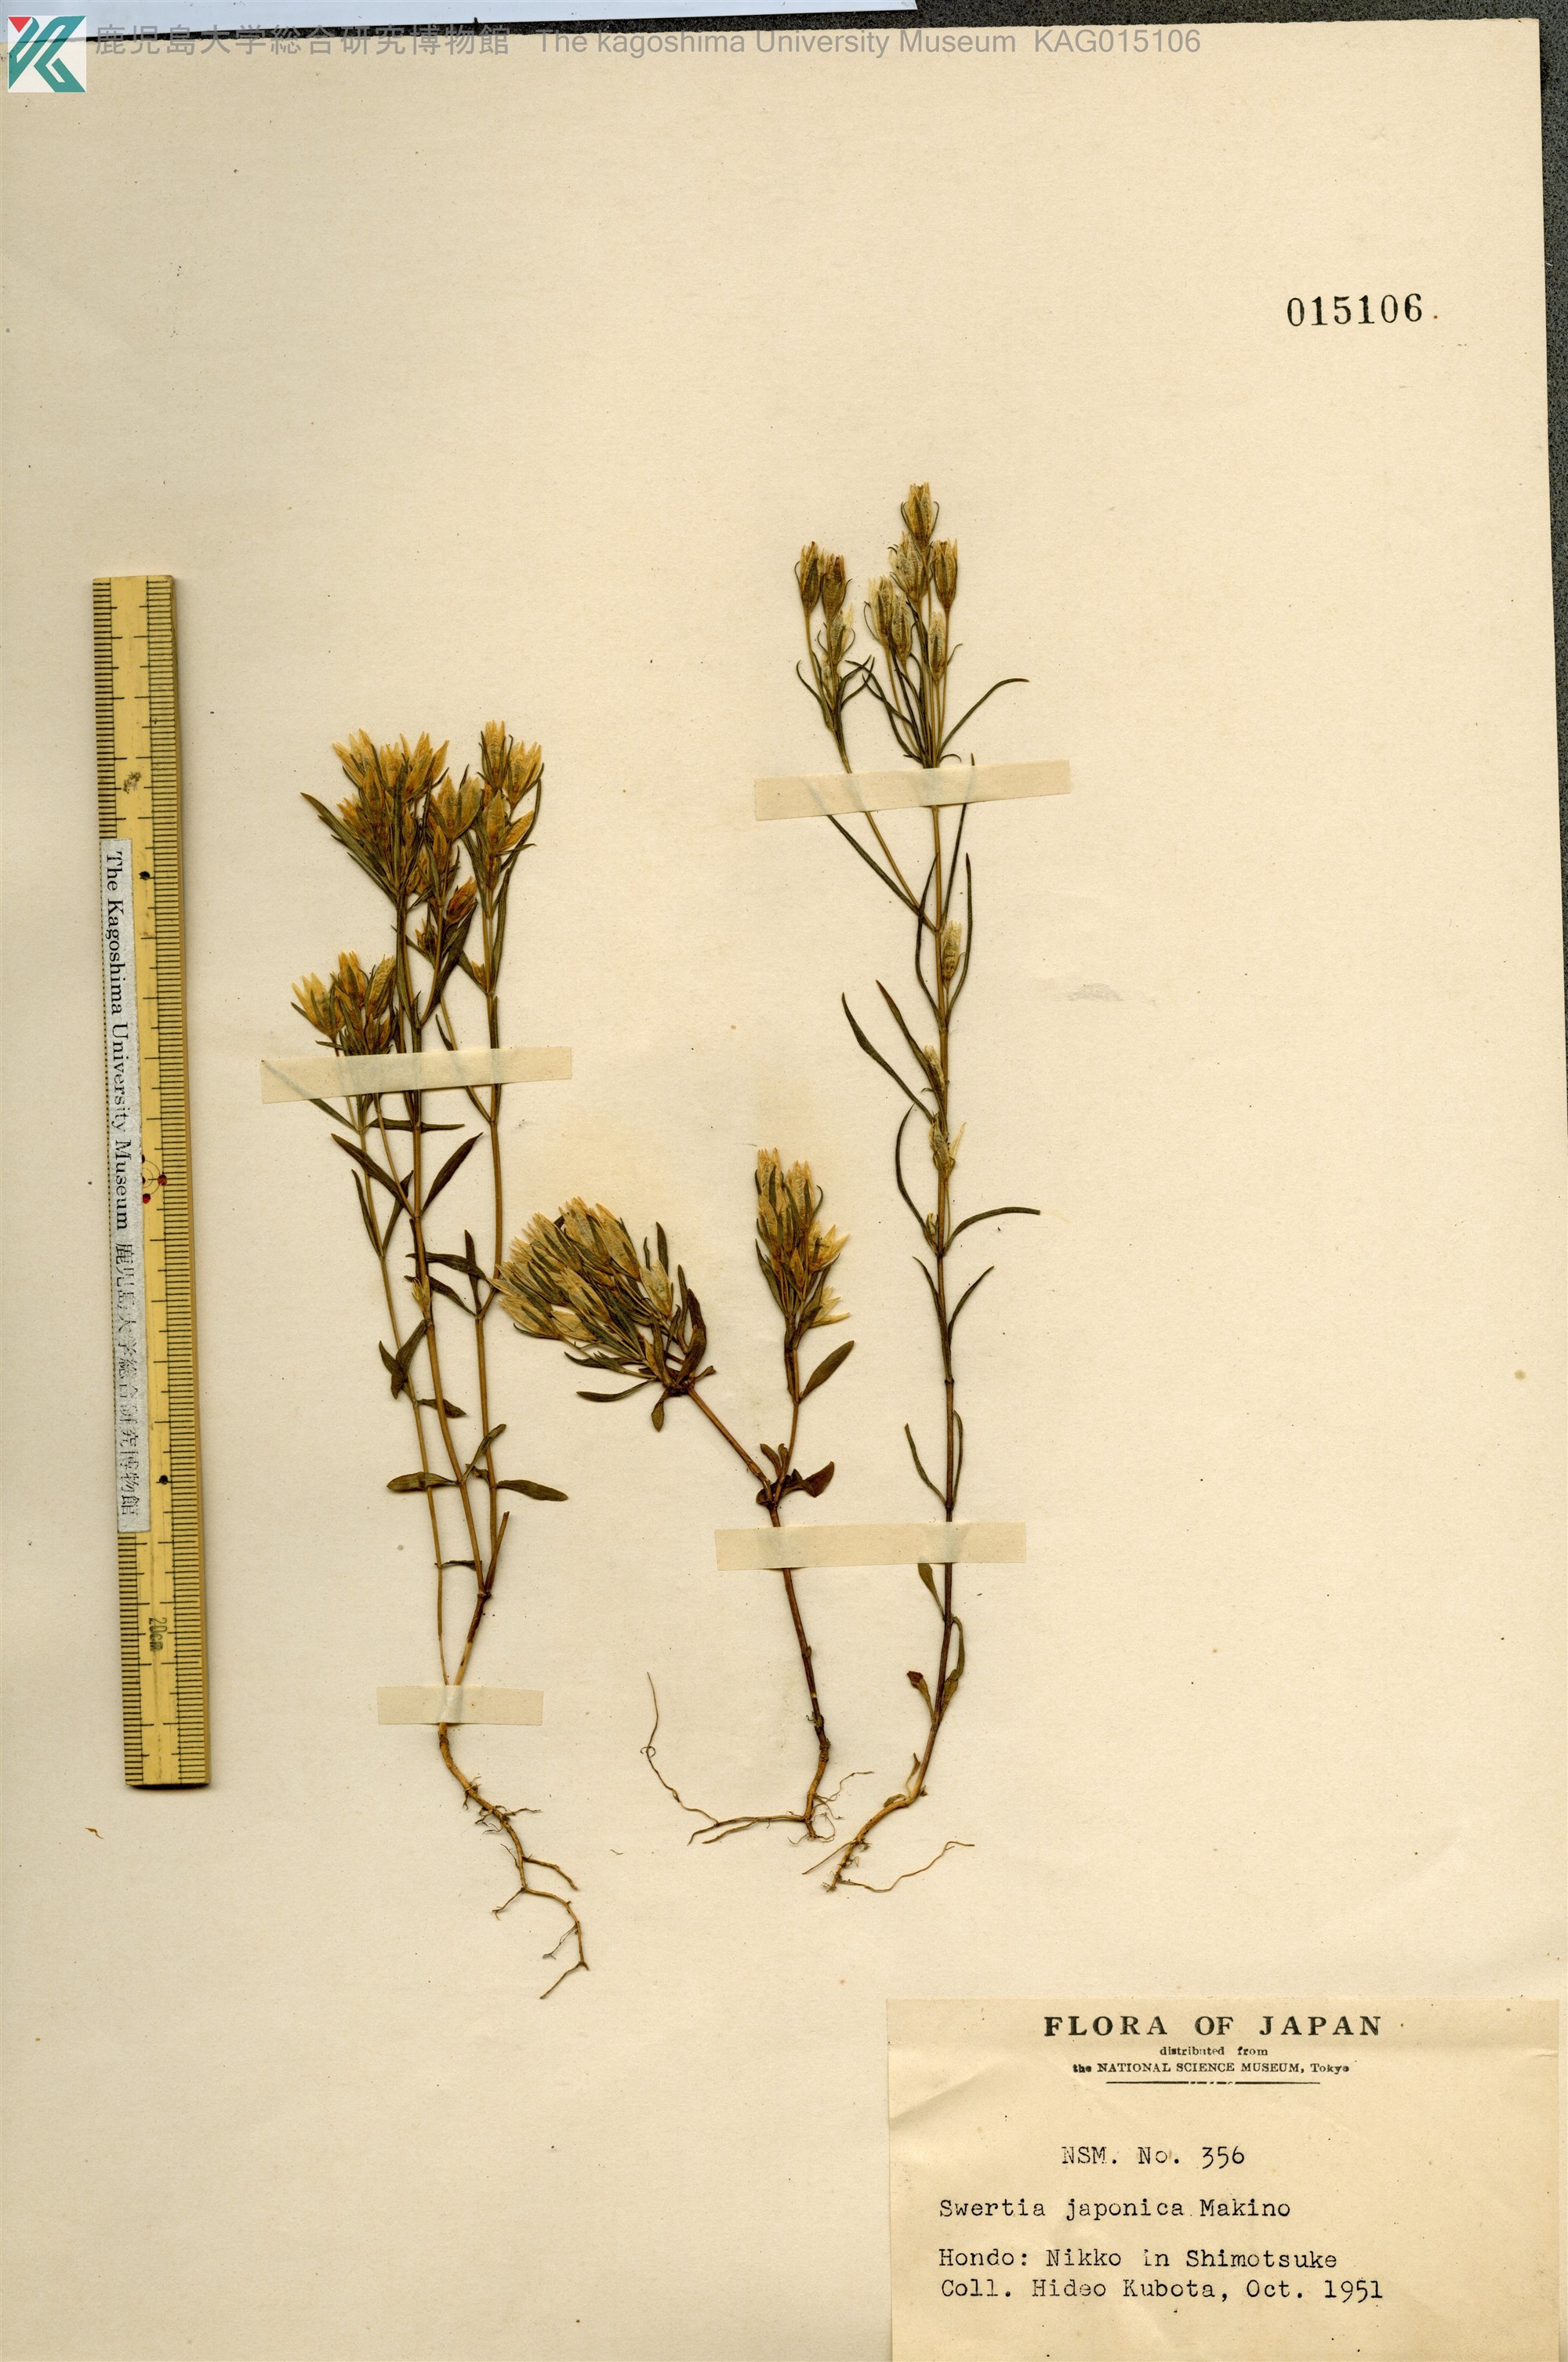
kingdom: Plantae
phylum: Tracheophyta
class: Magnoliopsida
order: Gentianales
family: Gentianaceae
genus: Swertia
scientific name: Swertia japonica
